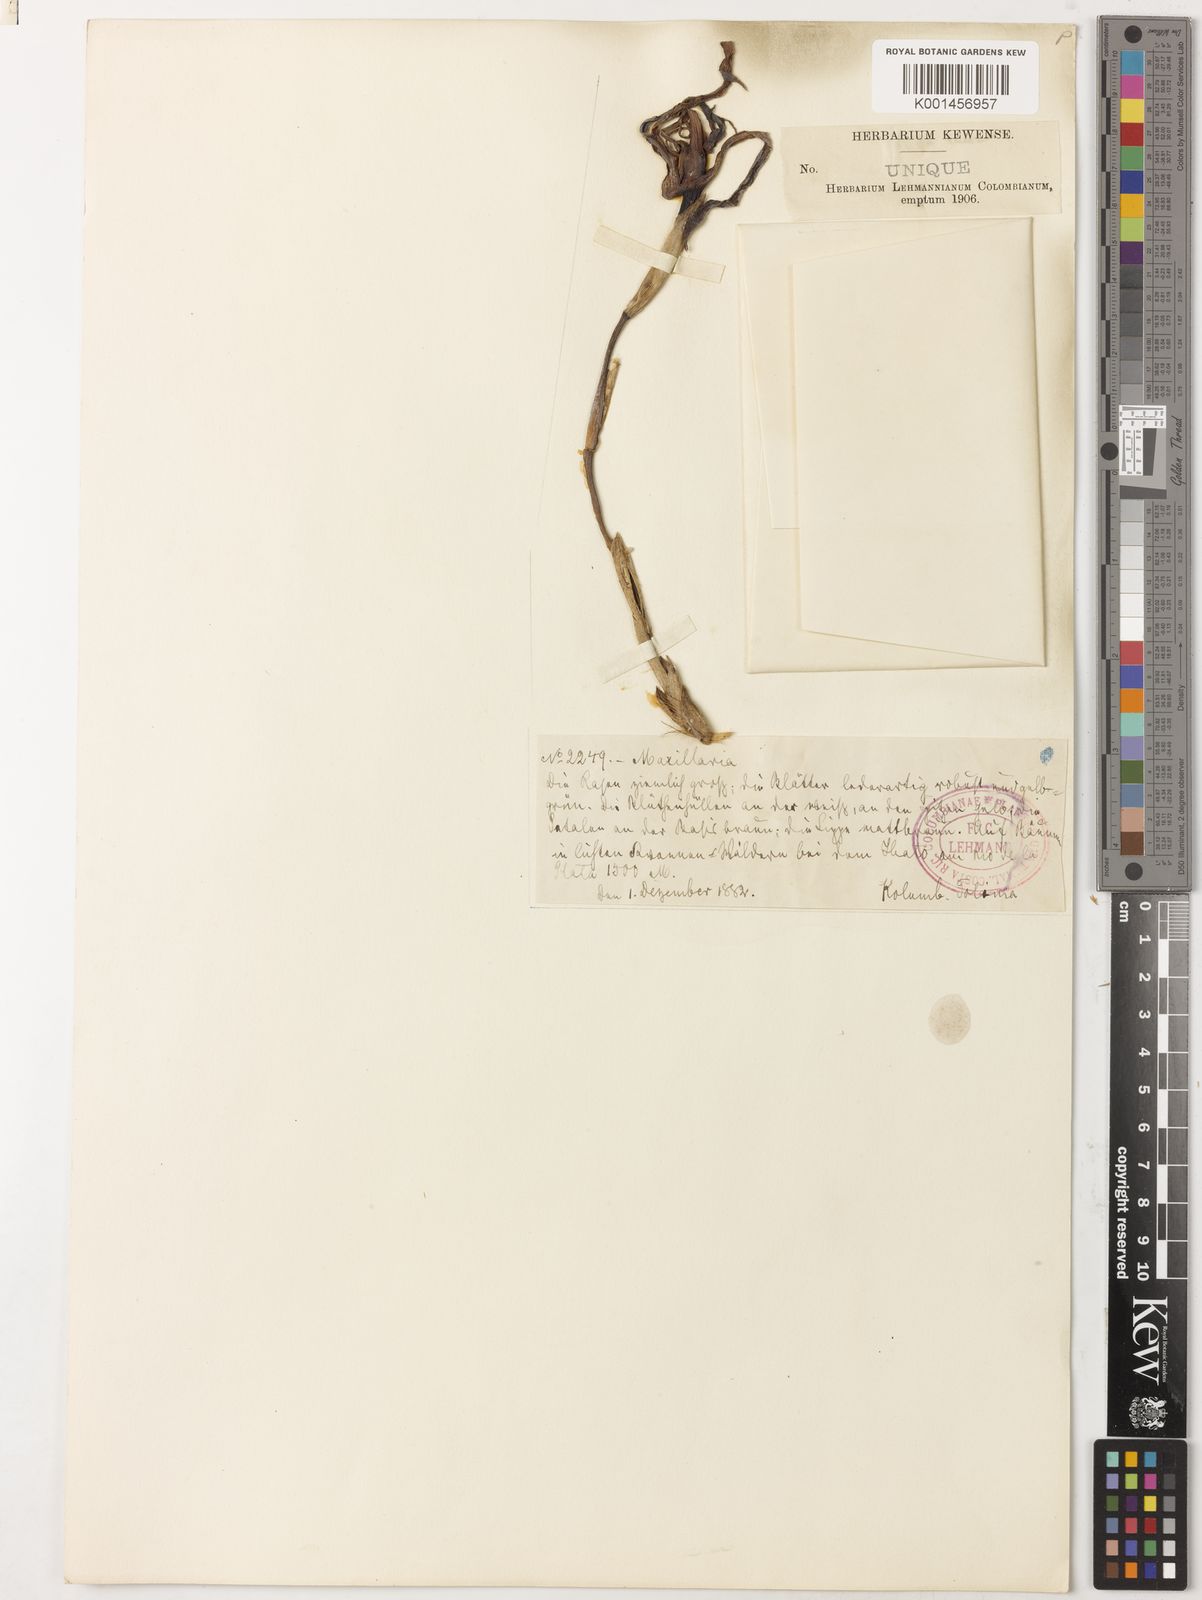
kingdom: Plantae
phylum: Tracheophyta
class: Liliopsida
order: Asparagales
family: Orchidaceae
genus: Maxillaria
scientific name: Maxillaria callichroma
